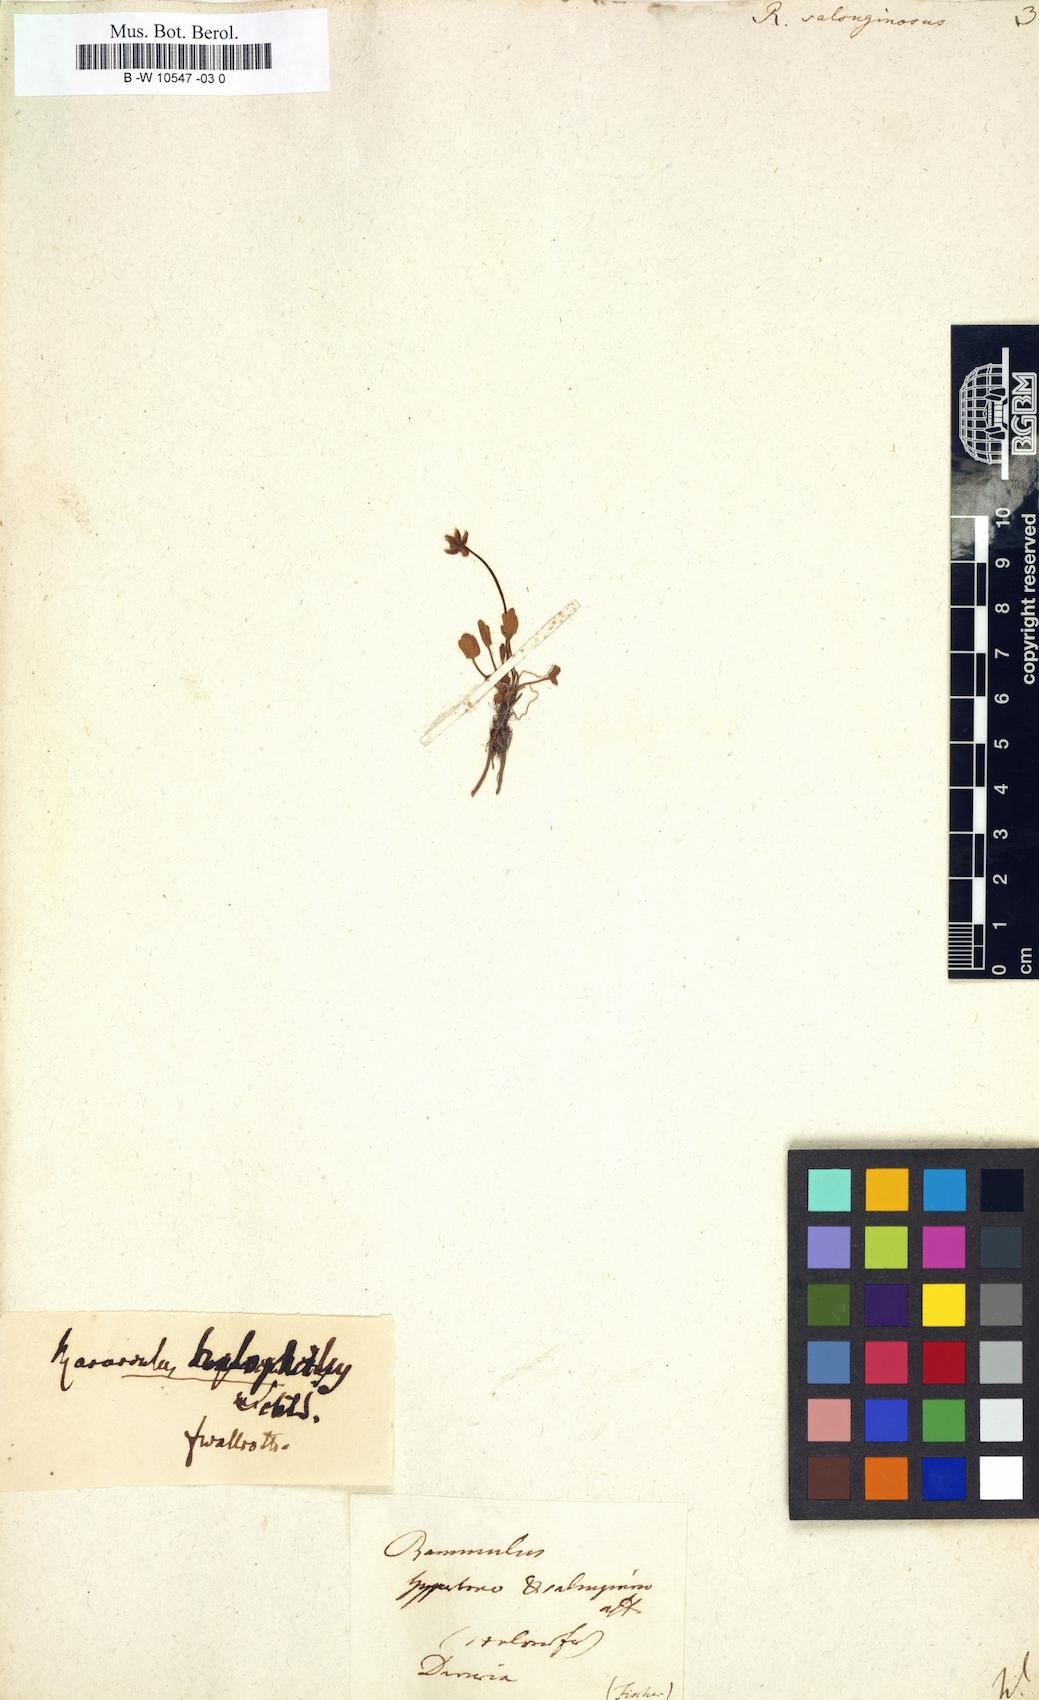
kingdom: Plantae
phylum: Tracheophyta
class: Magnoliopsida
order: Ranunculales
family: Ranunculaceae
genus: Halerpestes
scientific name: Halerpestes ruthenica
